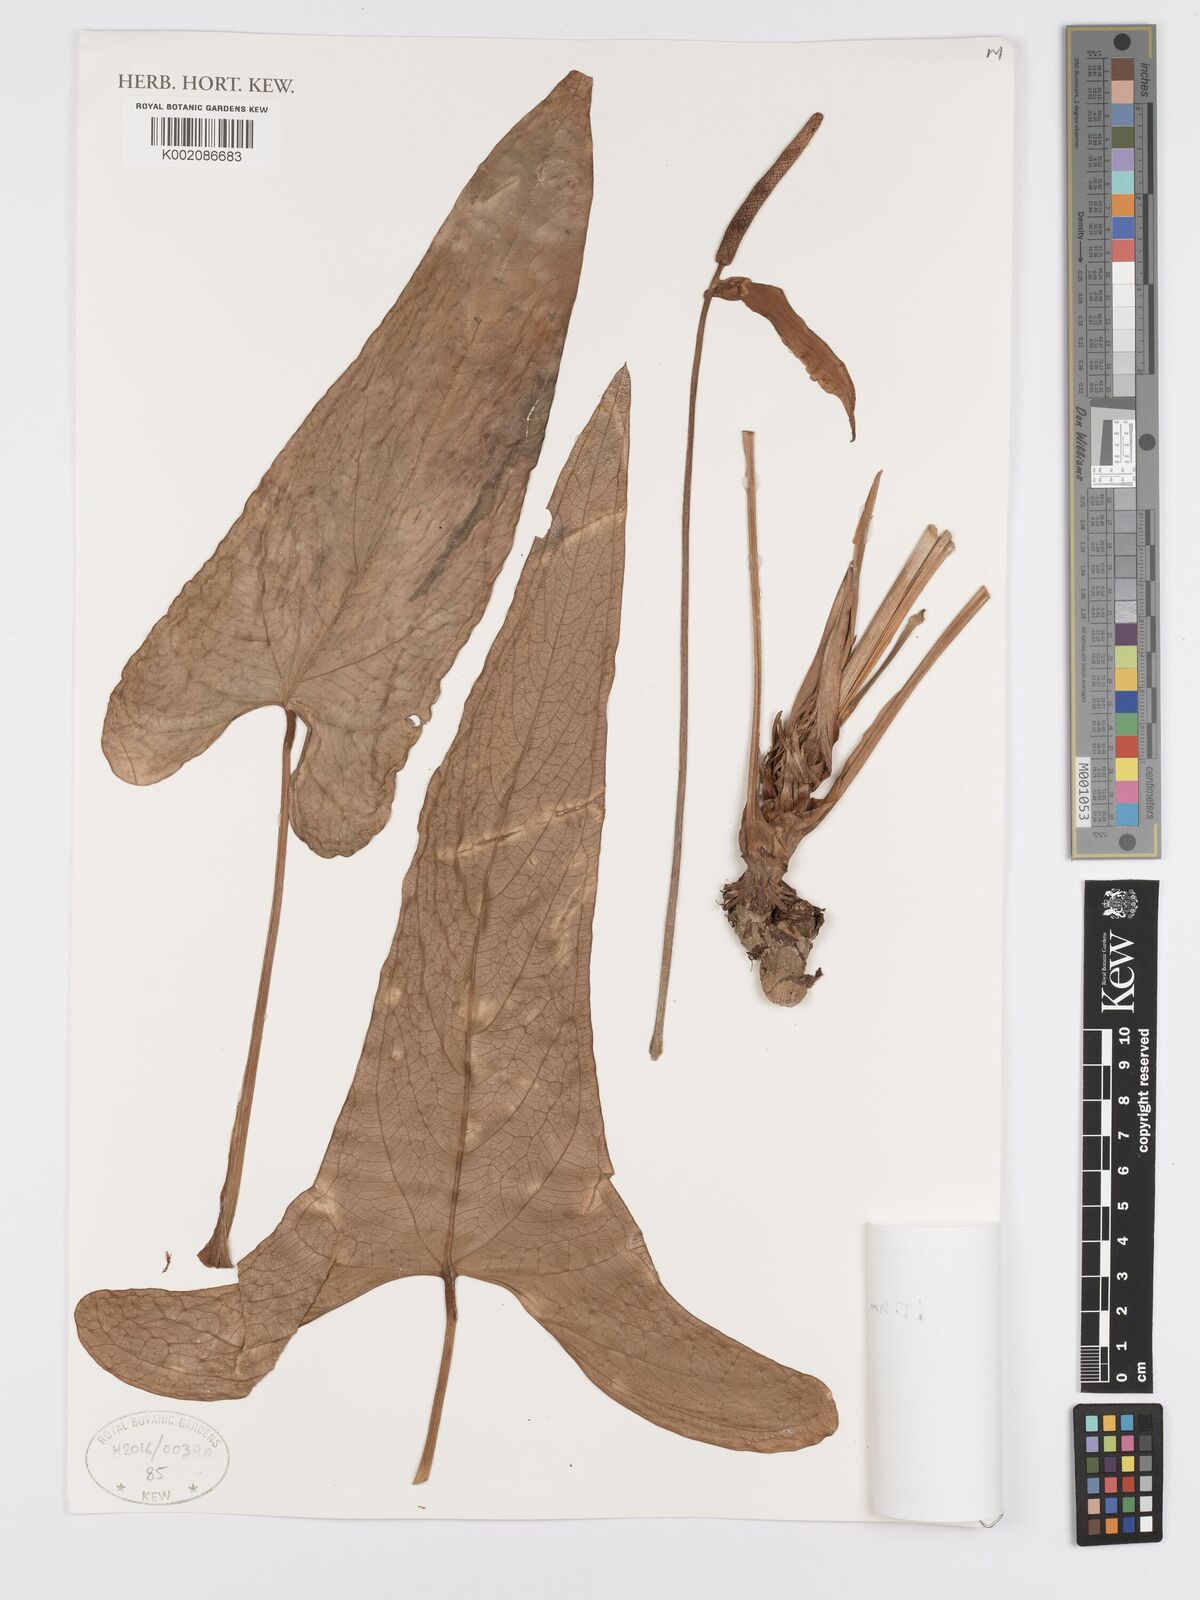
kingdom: Plantae
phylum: Tracheophyta
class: Liliopsida
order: Alismatales
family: Araceae
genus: Anthurium
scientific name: Anthurium ochranthum
